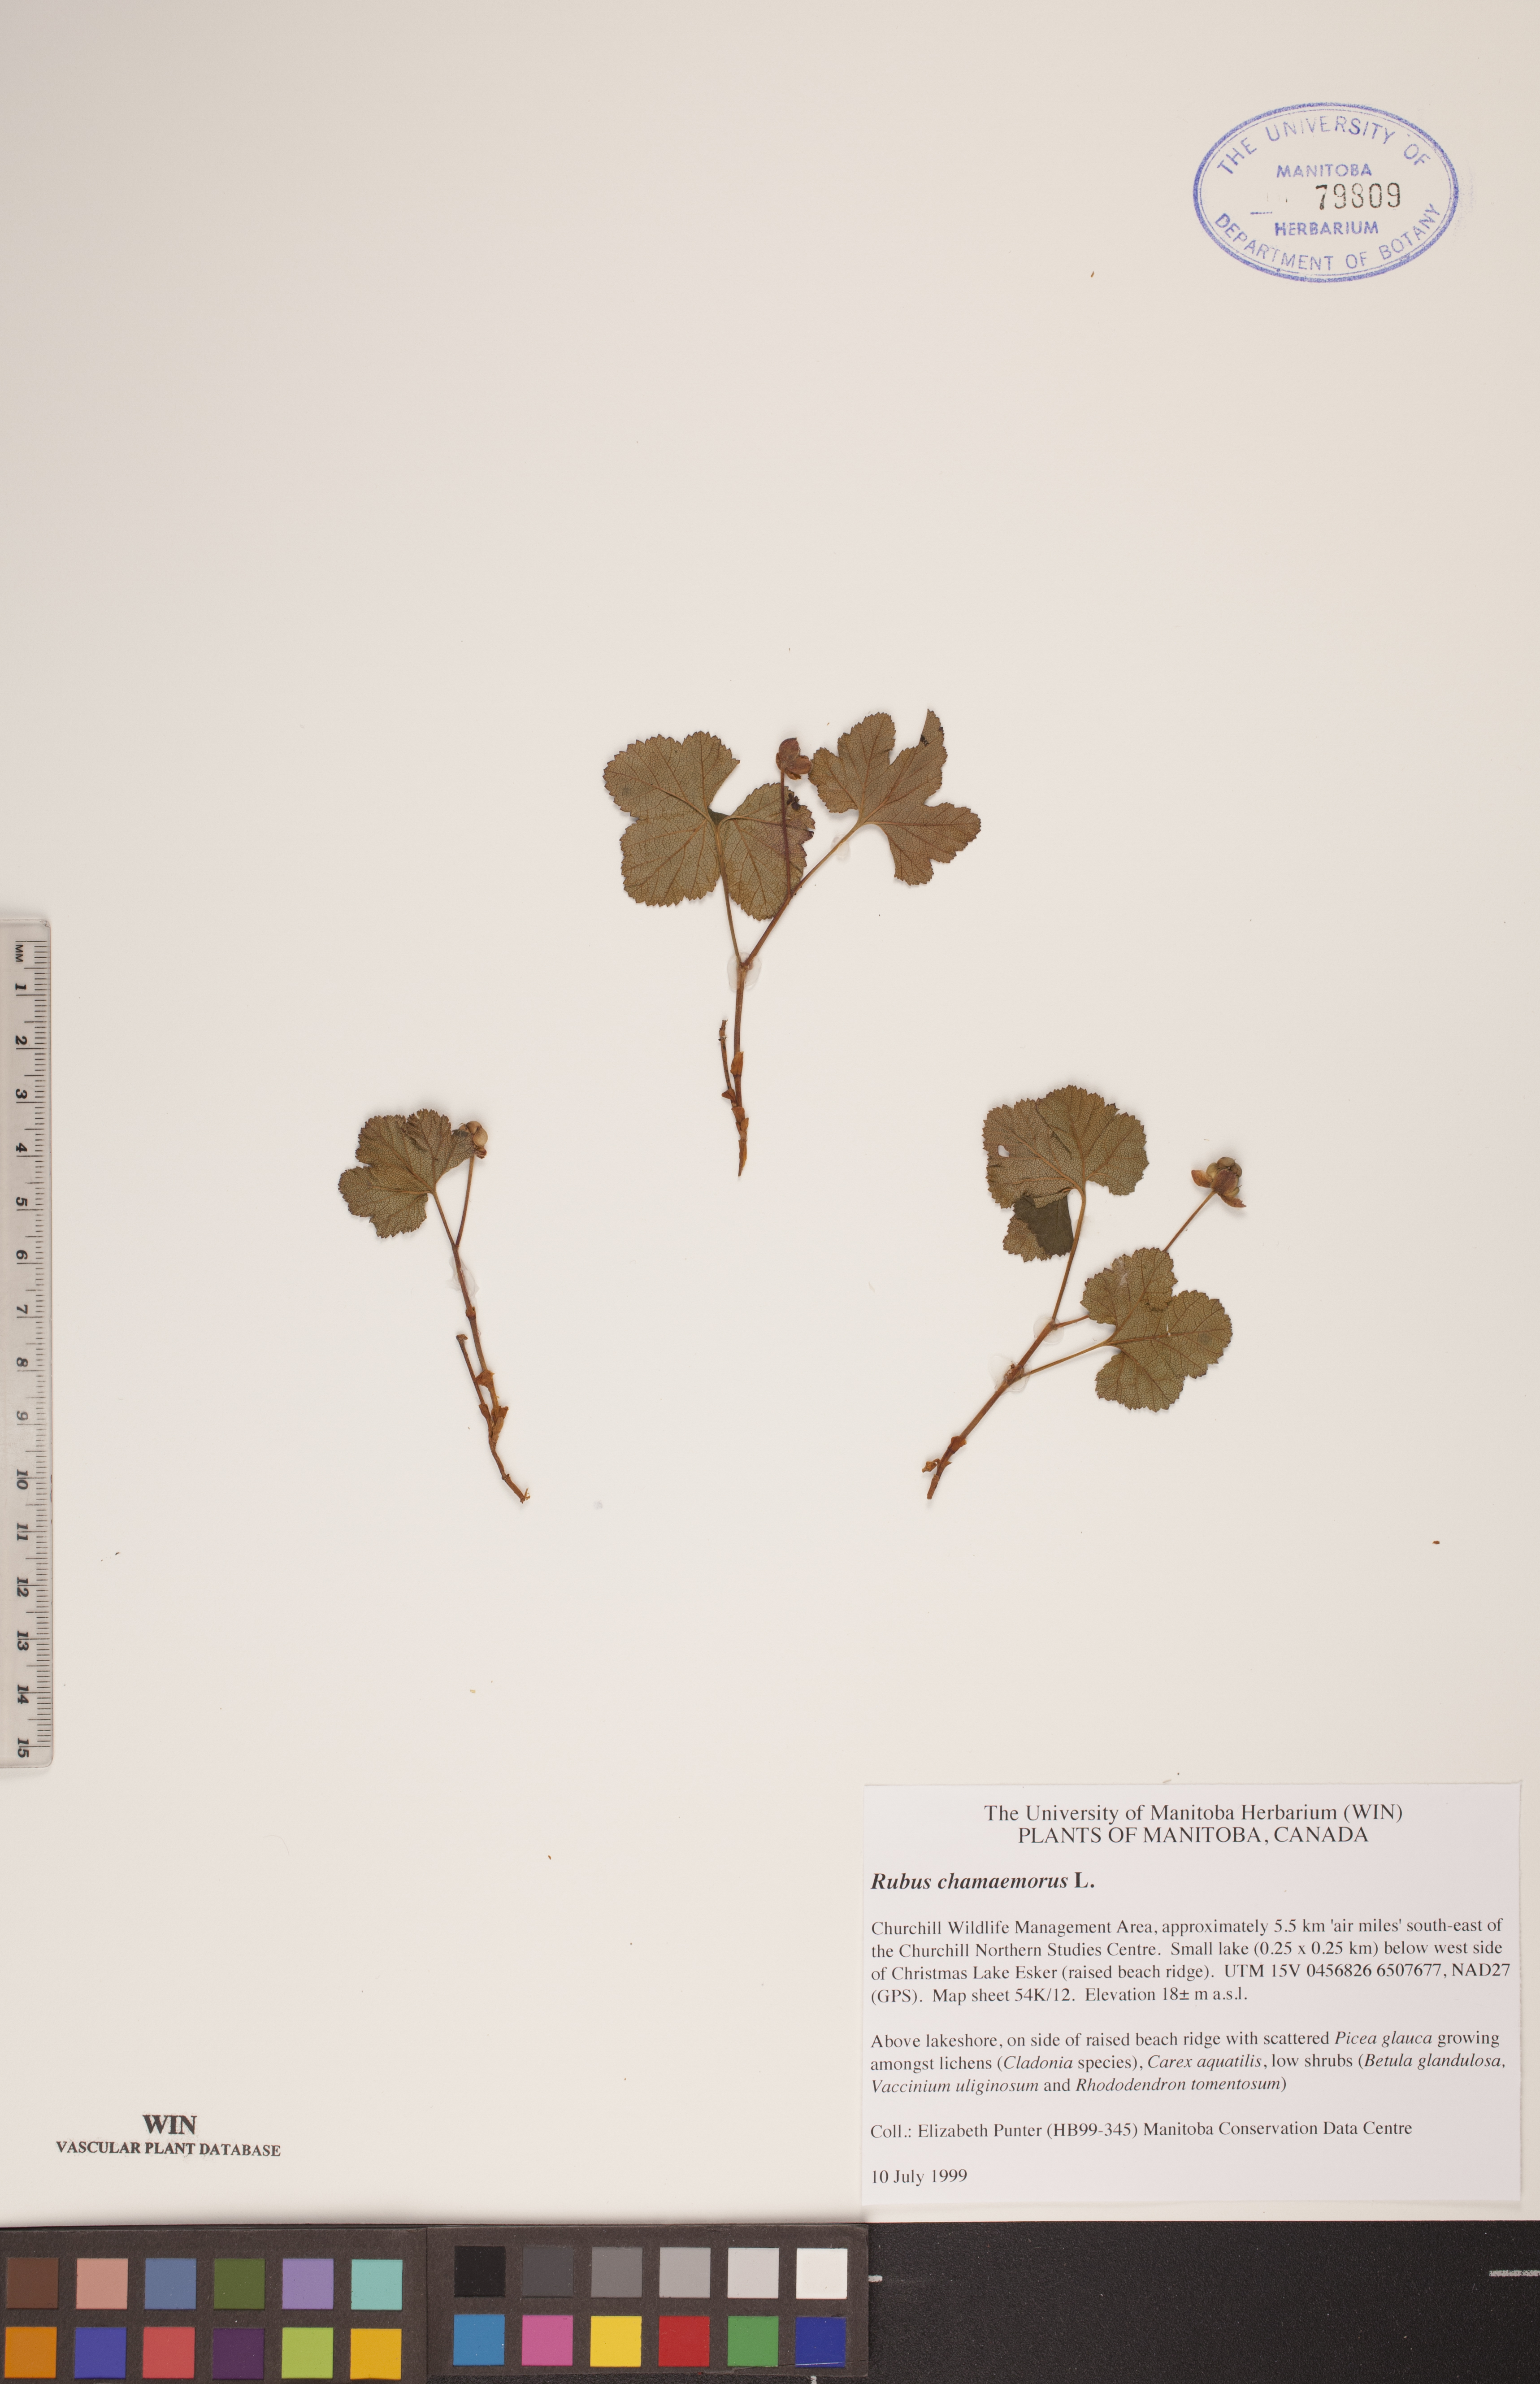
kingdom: Plantae
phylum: Tracheophyta
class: Magnoliopsida
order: Rosales
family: Rosaceae
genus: Rubus
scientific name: Rubus chamaemorus
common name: Cloudberry
